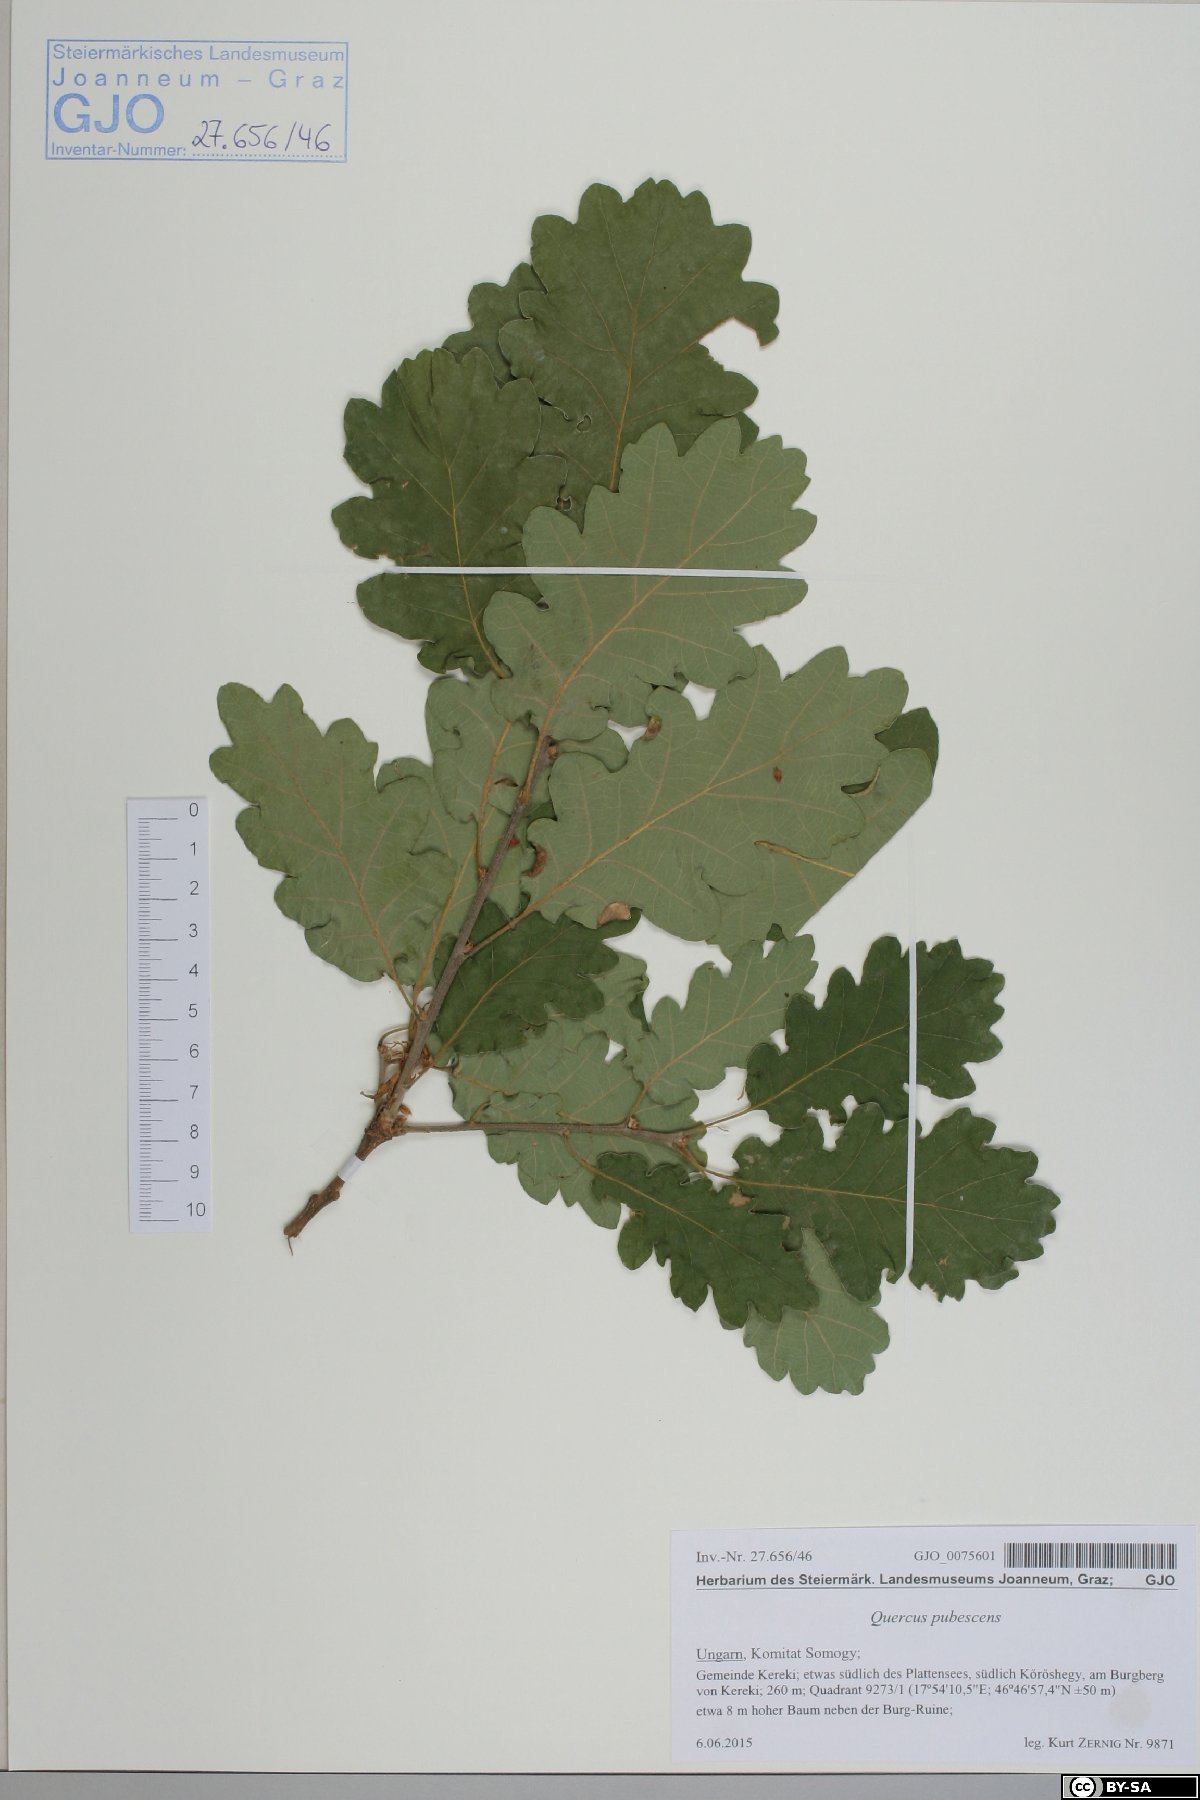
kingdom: Plantae
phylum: Tracheophyta
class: Magnoliopsida
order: Fagales
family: Fagaceae
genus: Quercus
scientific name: Quercus pubescens
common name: Downy oak
